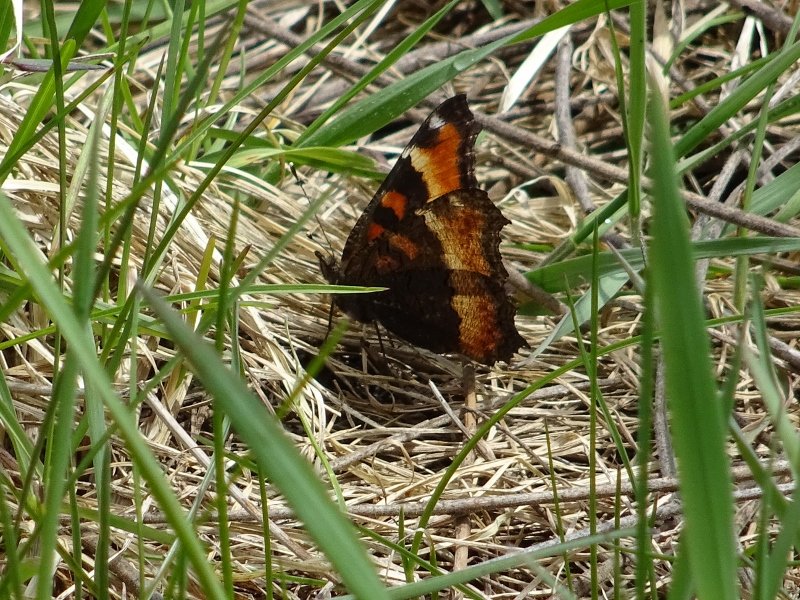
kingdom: Animalia
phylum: Arthropoda
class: Insecta
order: Lepidoptera
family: Nymphalidae
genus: Aglais
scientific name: Aglais milberti
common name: Milbert's Tortoiseshell
